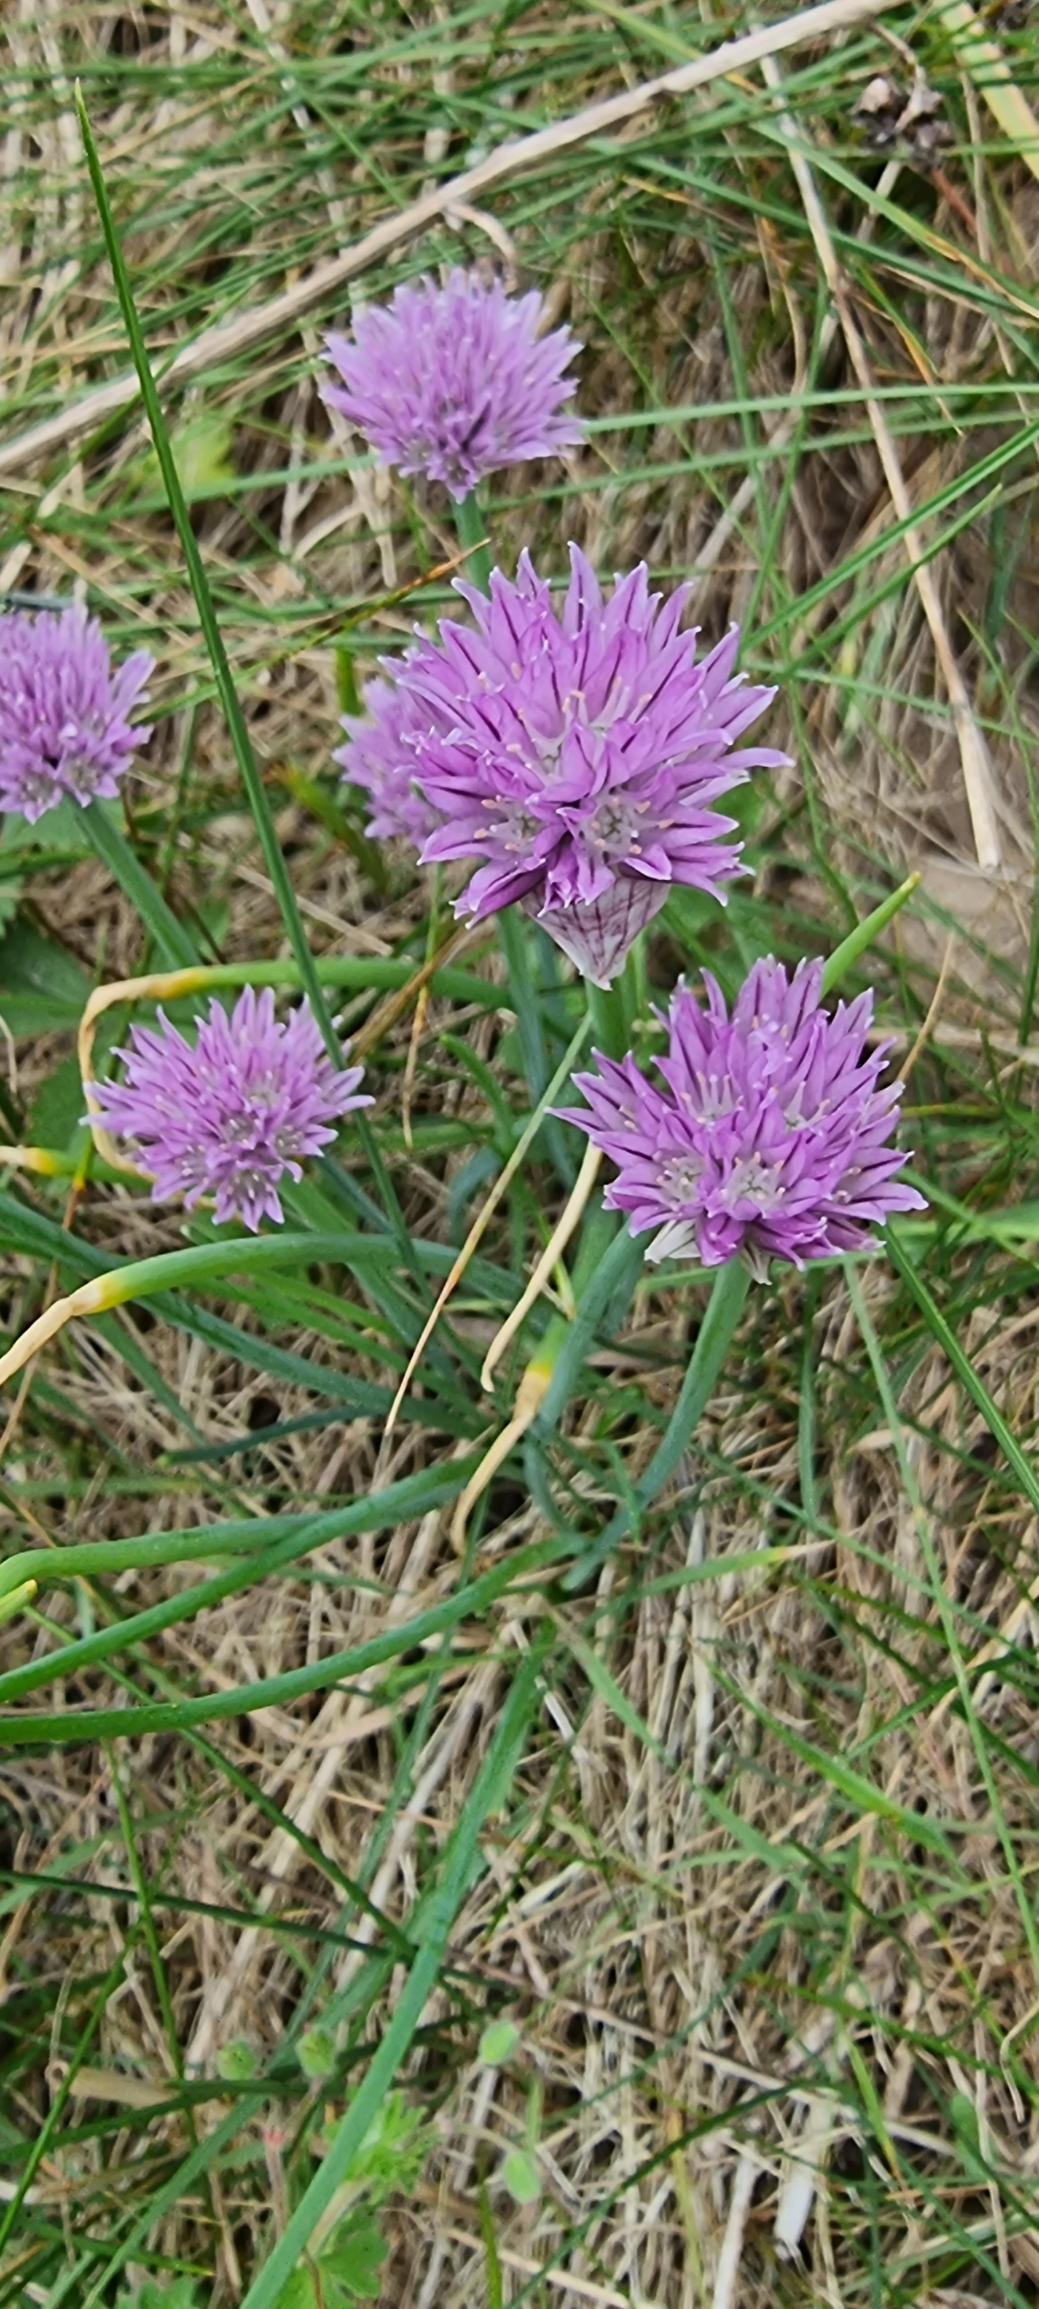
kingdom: Plantae
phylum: Tracheophyta
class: Liliopsida
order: Asparagales
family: Amaryllidaceae
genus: Allium
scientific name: Allium schoenoprasum
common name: Pur-løg
